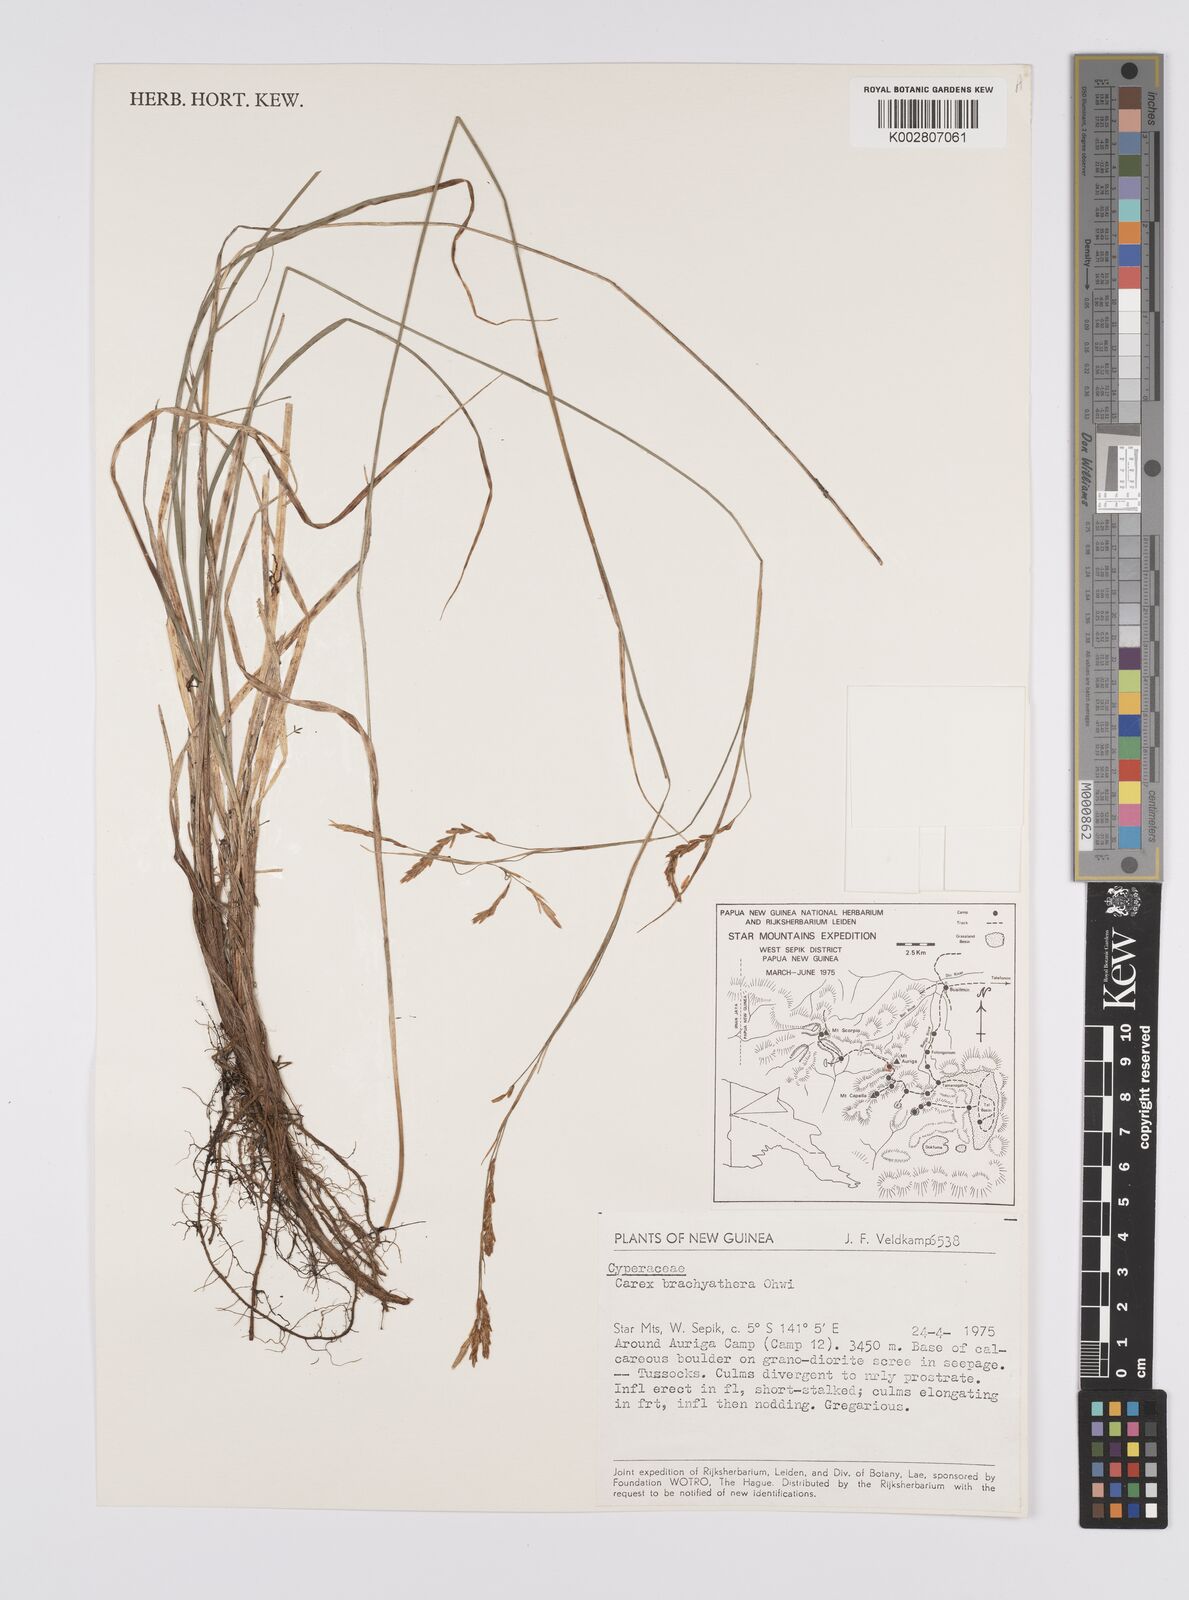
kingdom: Plantae
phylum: Tracheophyta
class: Liliopsida
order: Poales
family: Cyperaceae
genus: Carex
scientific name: Carex brachyanthera
